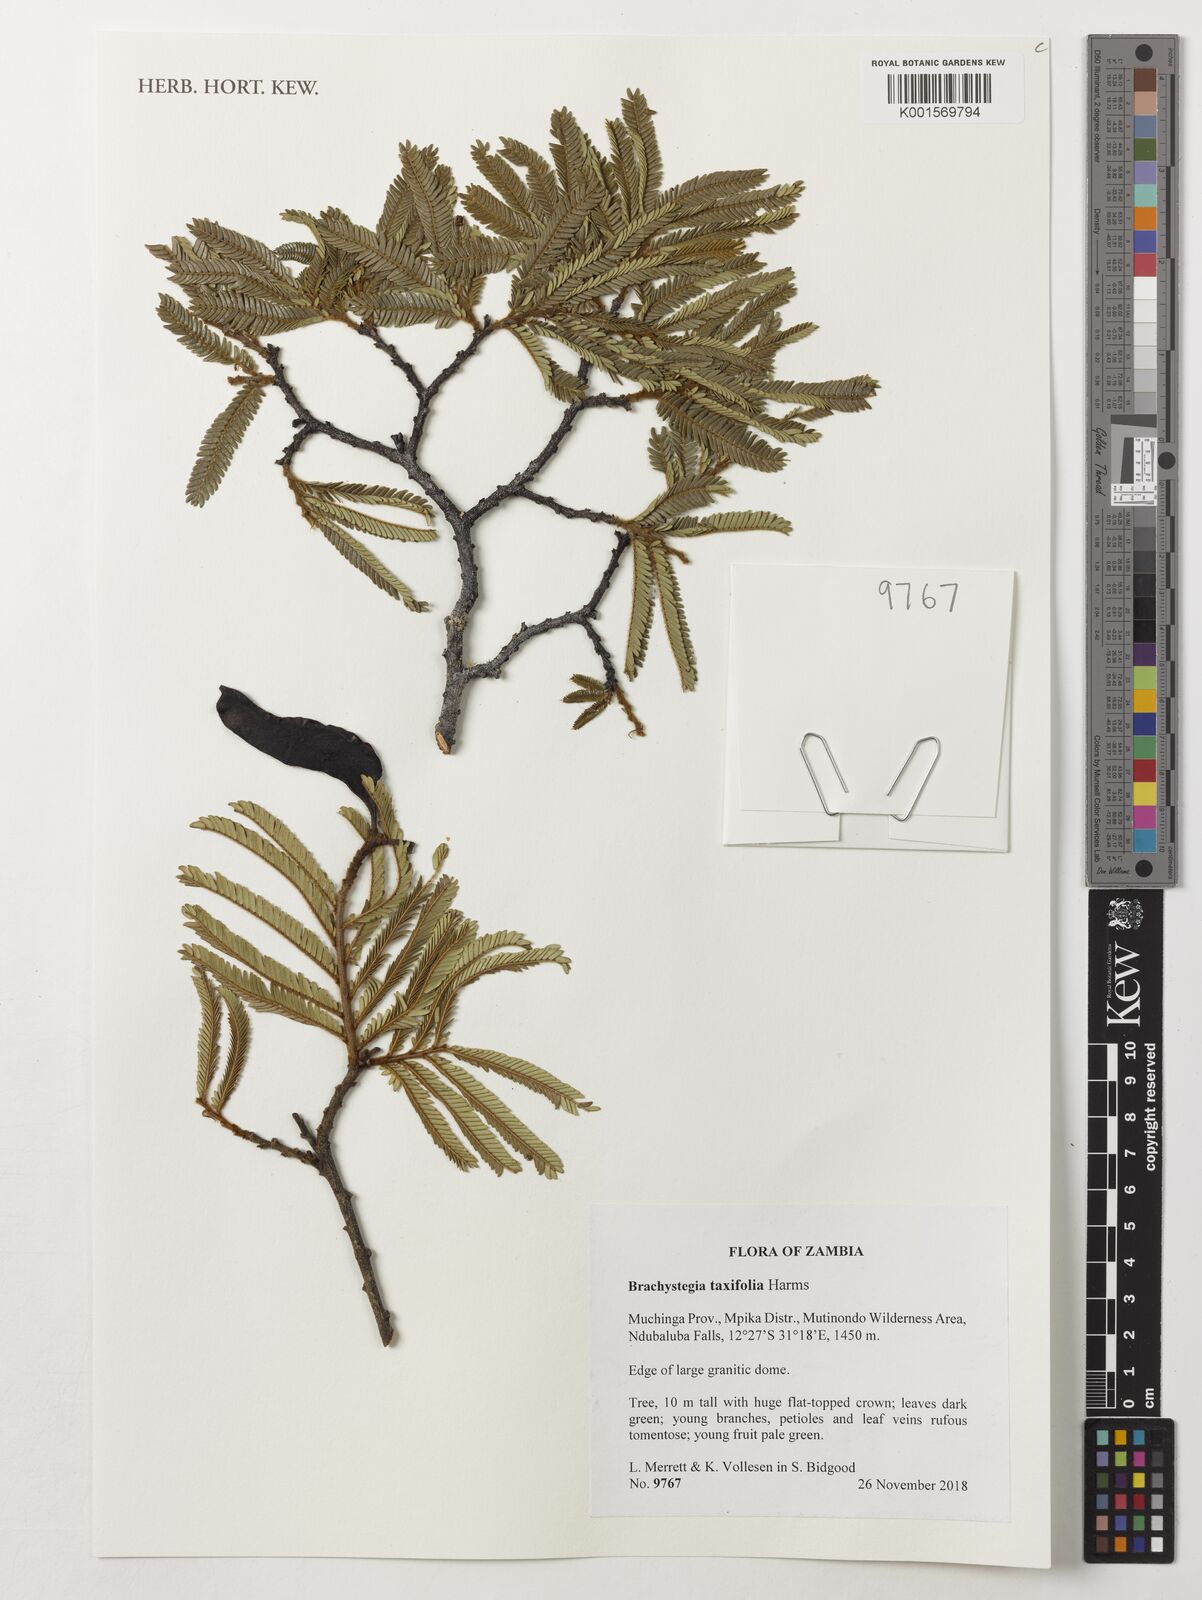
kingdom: Plantae
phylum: Tracheophyta
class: Magnoliopsida
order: Fabales
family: Fabaceae
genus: Brachystegia
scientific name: Brachystegia taxifolia
